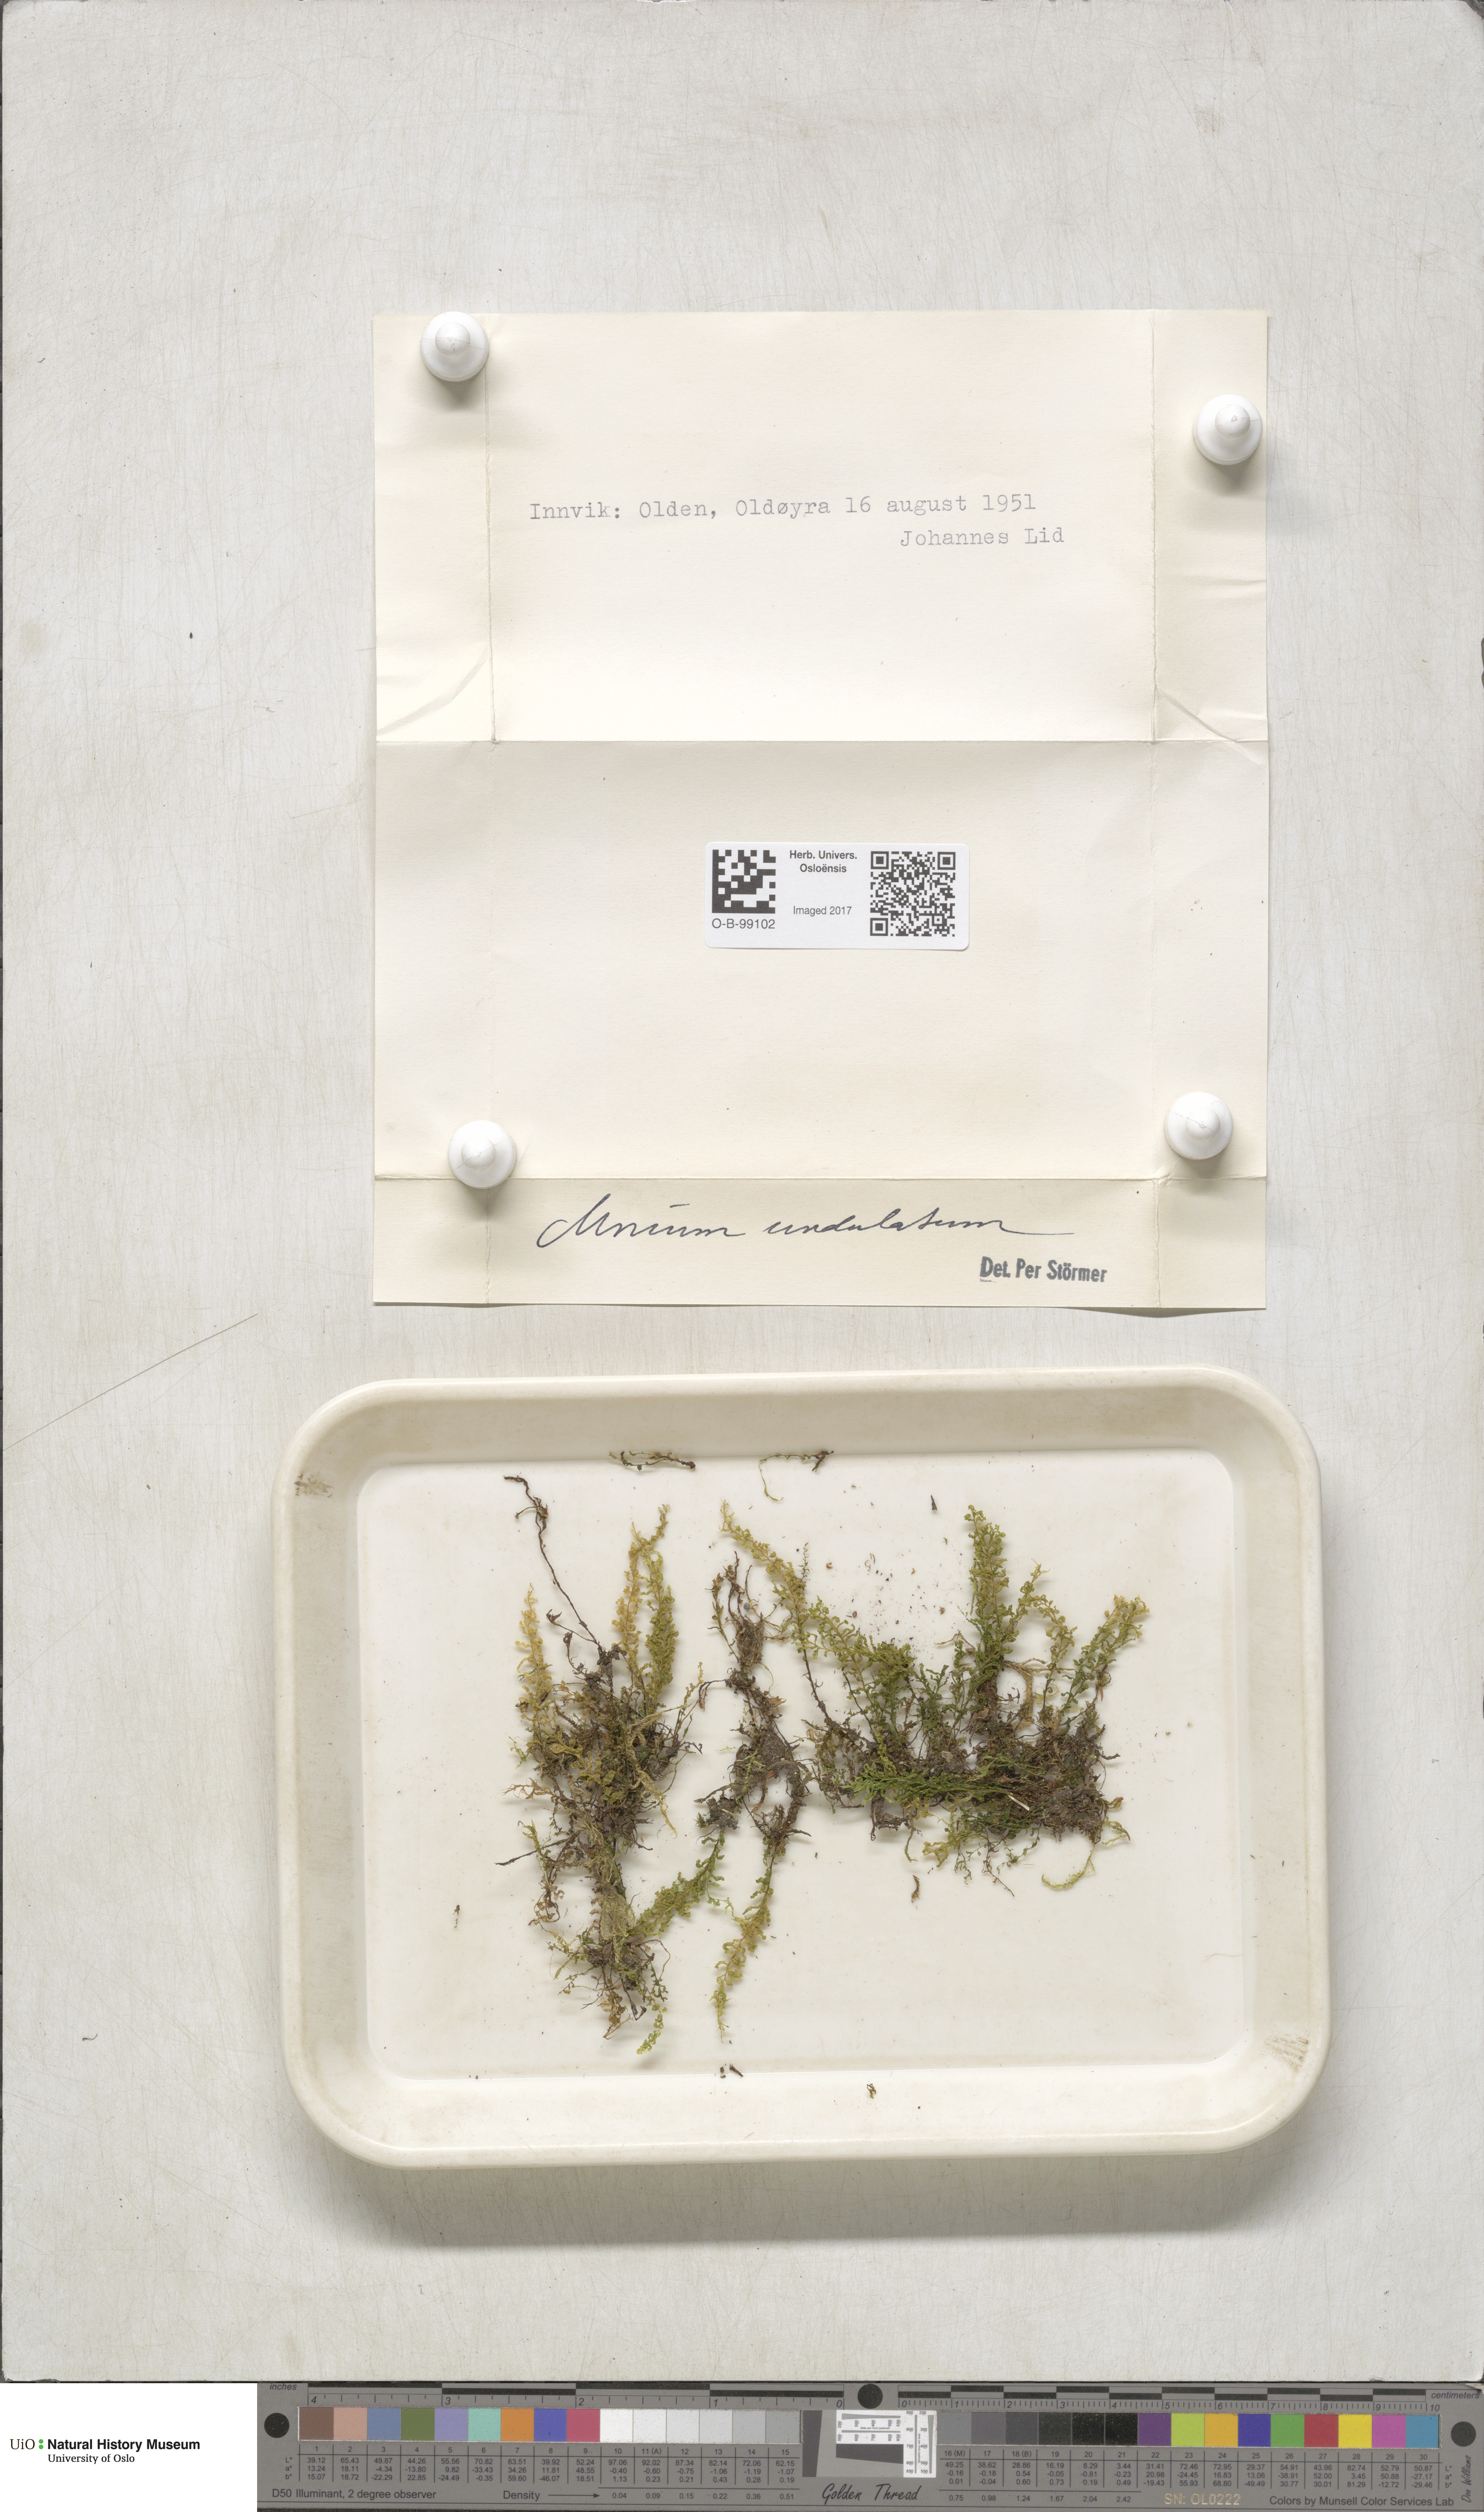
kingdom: Plantae
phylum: Bryophyta
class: Bryopsida
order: Bryales
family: Mniaceae
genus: Plagiomnium
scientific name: Plagiomnium undulatum
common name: Hart's-tongue thyme-moss
